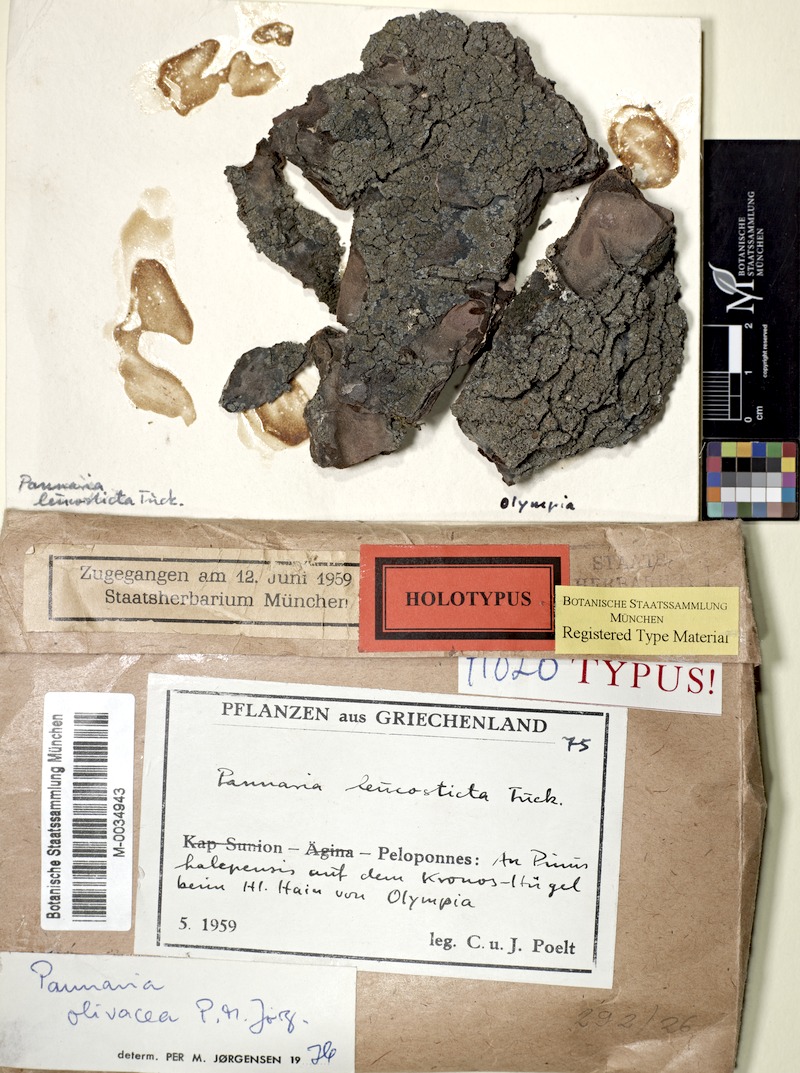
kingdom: Fungi
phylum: Ascomycota
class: Lecanoromycetes
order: Peltigerales
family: Pannariaceae
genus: Fuscopannaria
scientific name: Fuscopannaria olivacea
